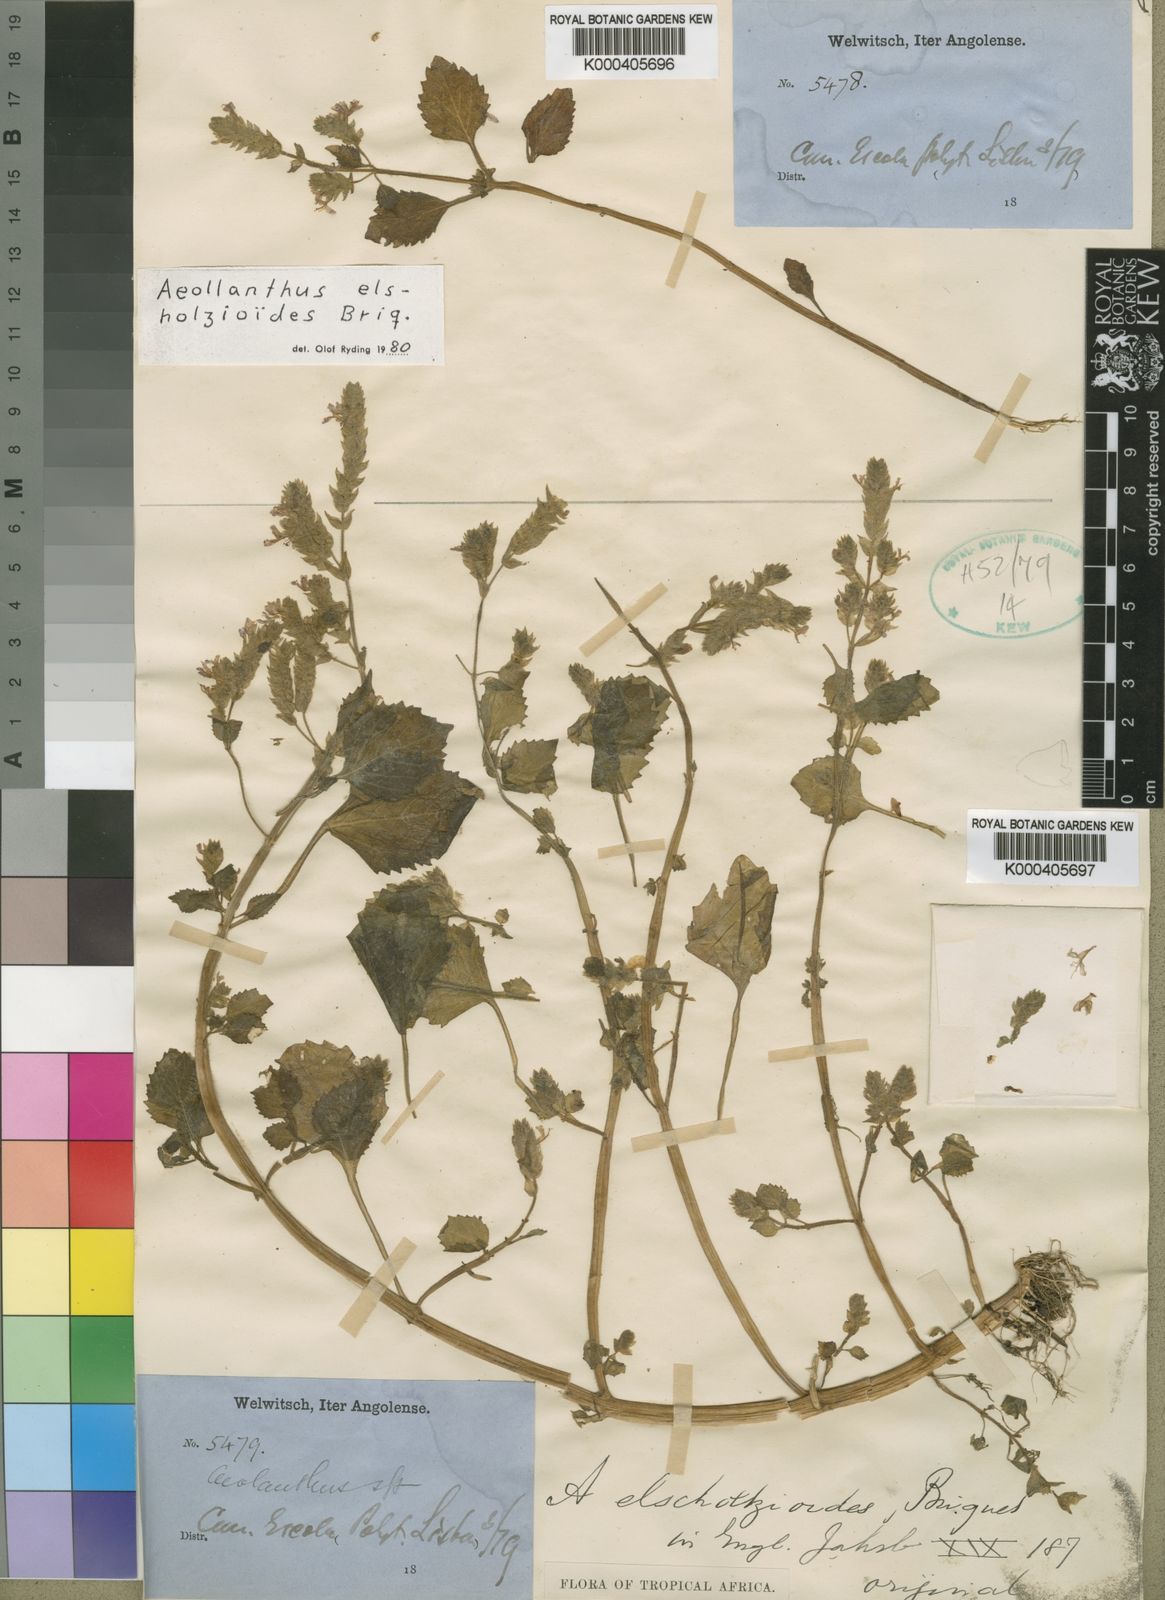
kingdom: Plantae
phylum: Tracheophyta
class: Magnoliopsida
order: Lamiales
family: Lamiaceae
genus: Aeollanthus
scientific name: Aeollanthus
